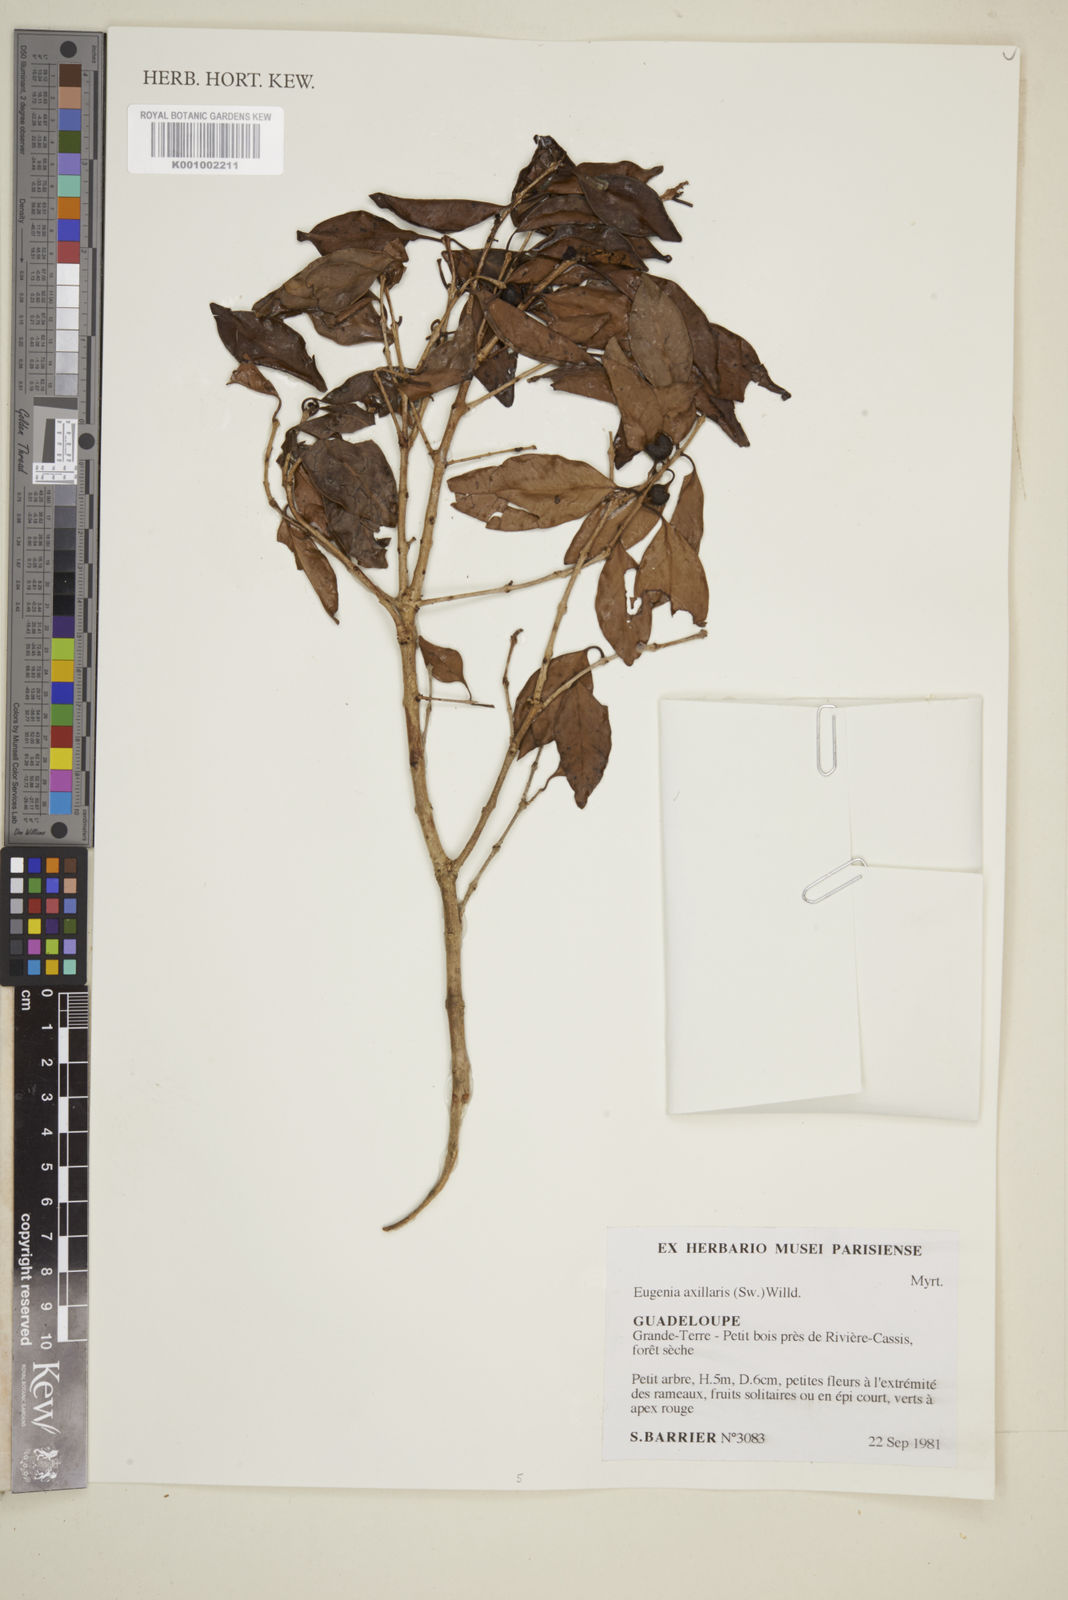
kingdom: Plantae
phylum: Tracheophyta
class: Magnoliopsida
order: Myrtales
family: Myrtaceae
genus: Eugenia
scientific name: Eugenia axillaris
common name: Choaky berry
